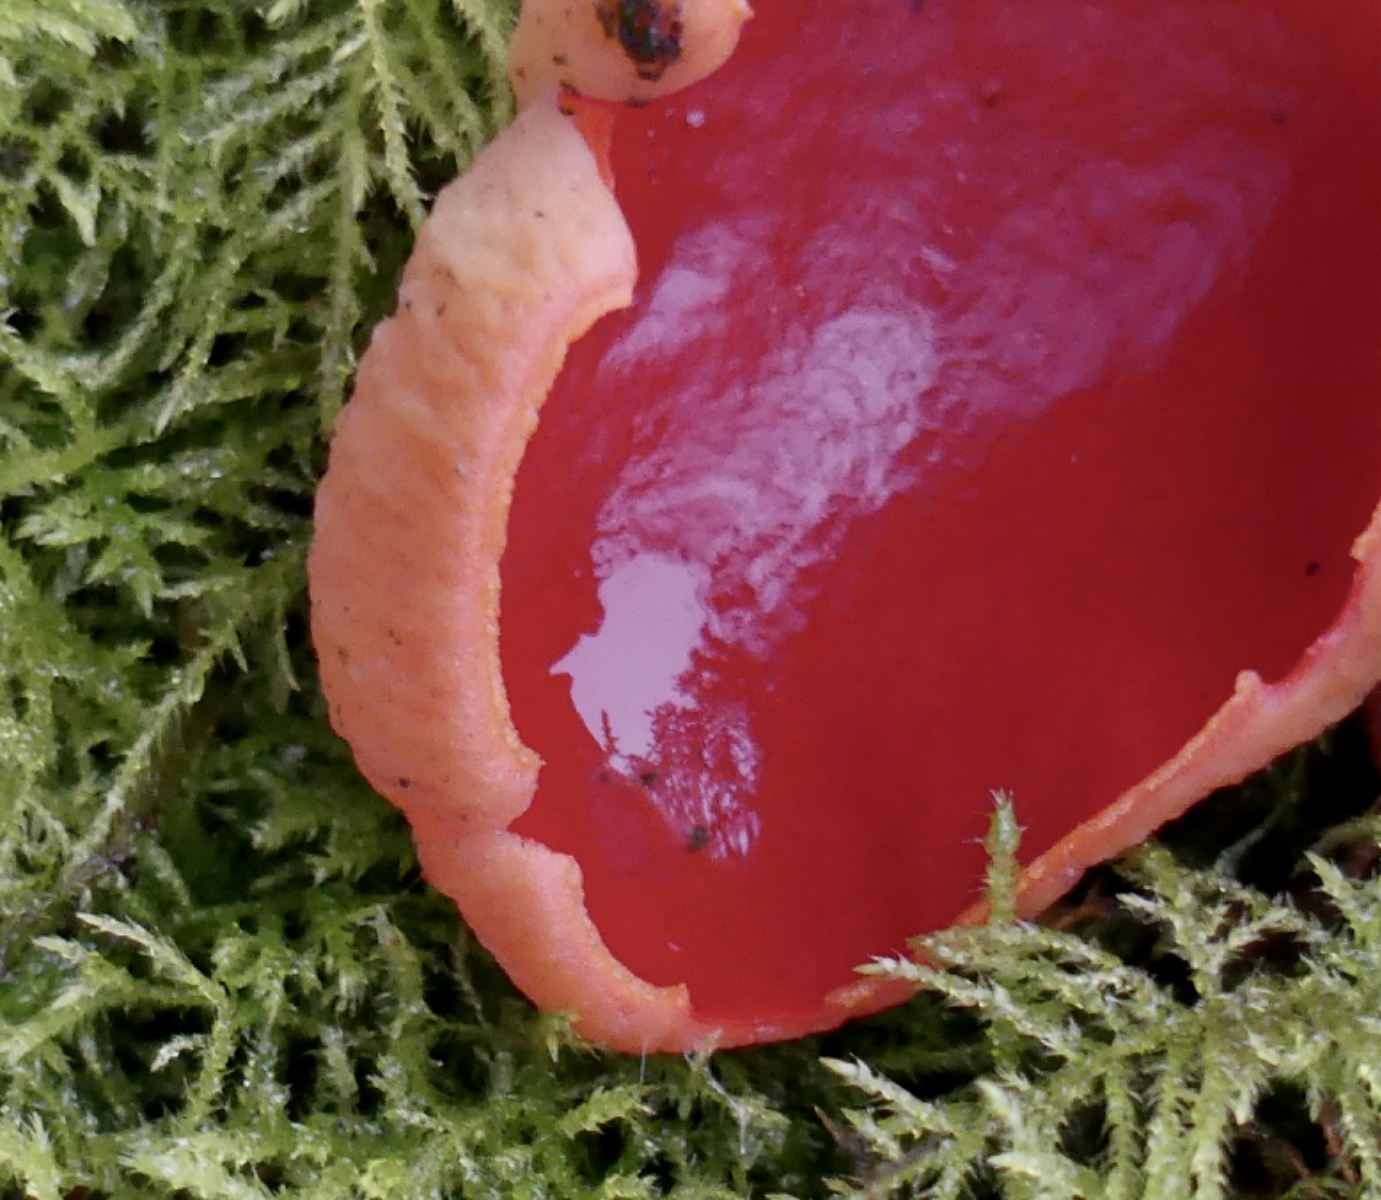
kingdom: Fungi
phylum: Ascomycota
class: Pezizomycetes
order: Pezizales
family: Sarcoscyphaceae
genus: Sarcoscypha
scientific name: Sarcoscypha austriaca
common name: krølhåret pragtbæger
